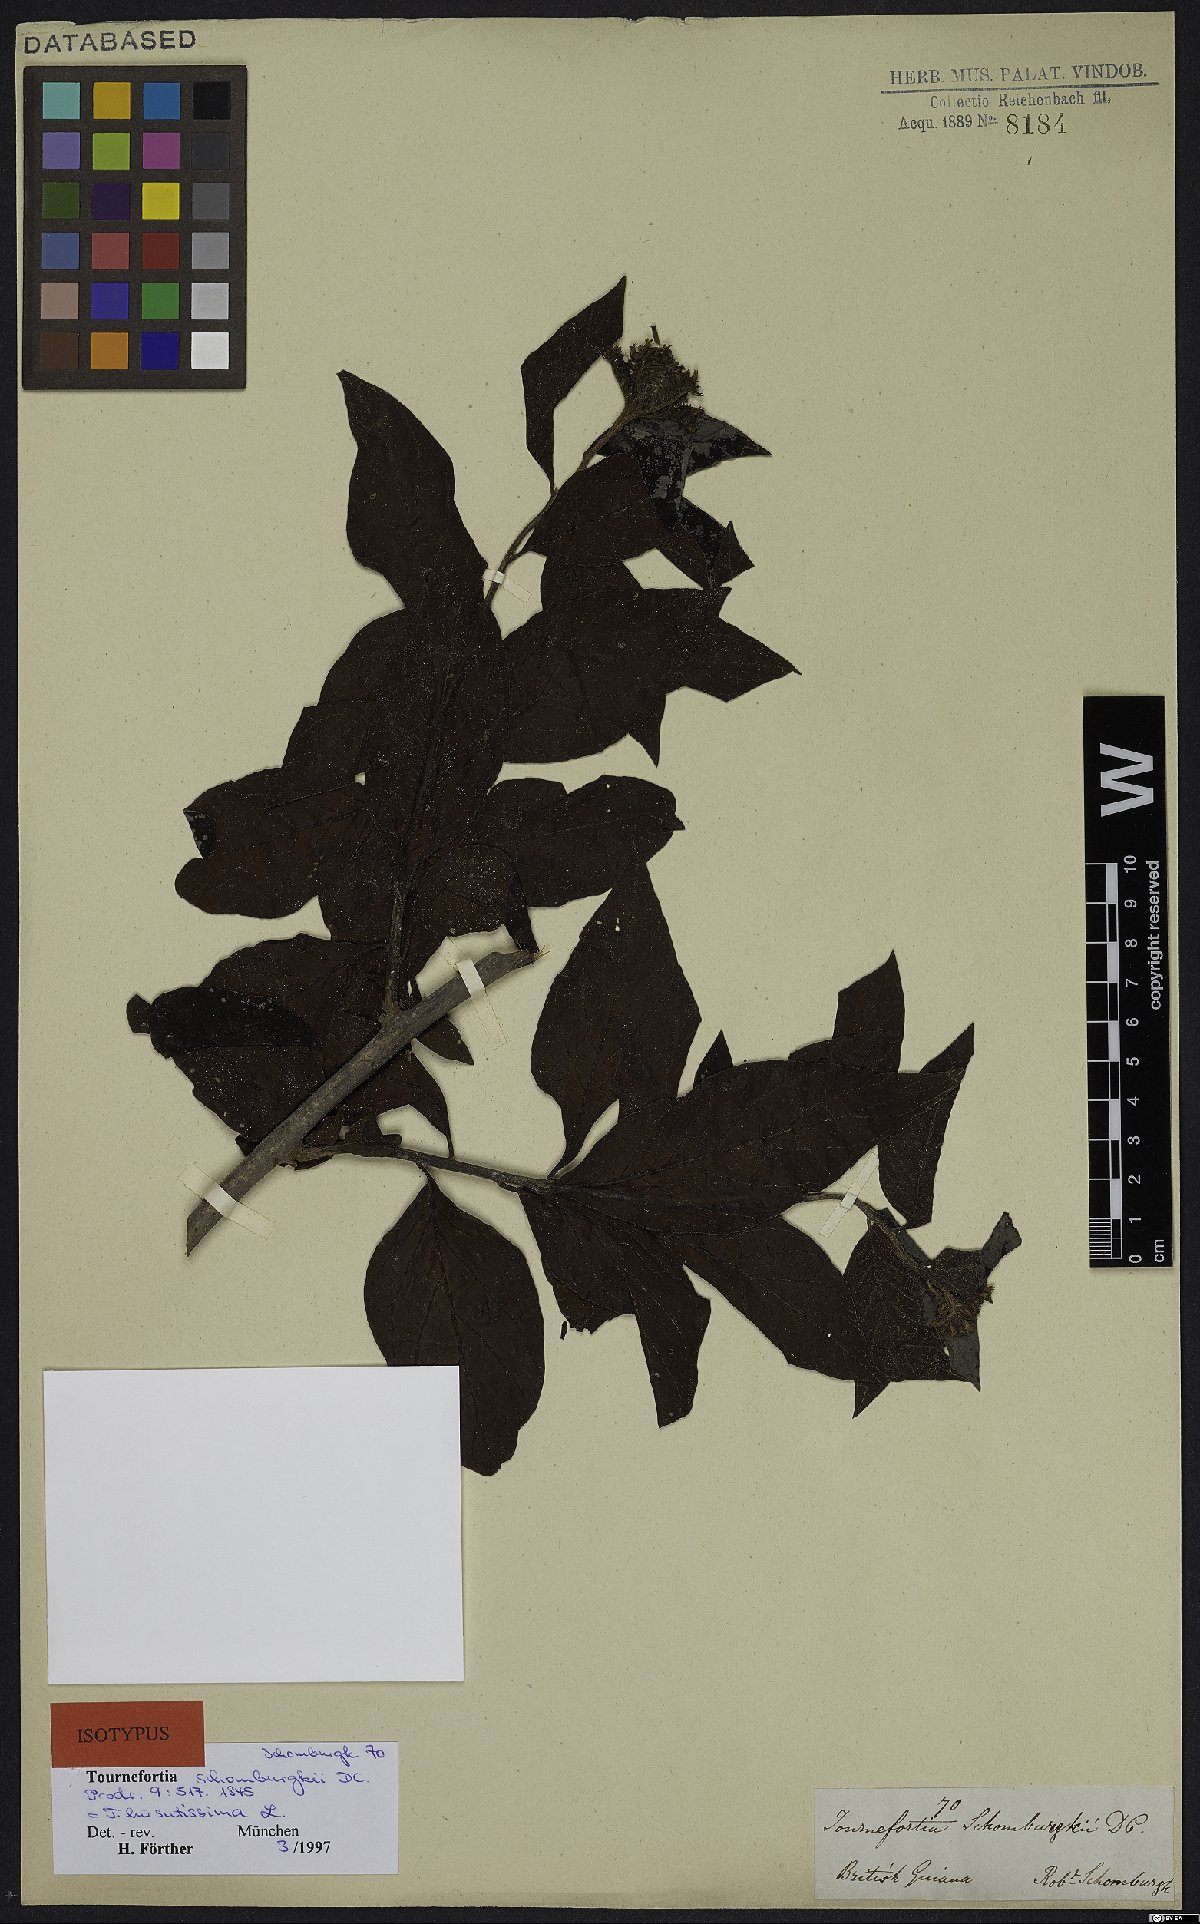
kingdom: Plantae
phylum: Tracheophyta
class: Magnoliopsida
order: Boraginales
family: Heliotropiaceae
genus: Heliotropium
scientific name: Heliotropium verdcourtii
